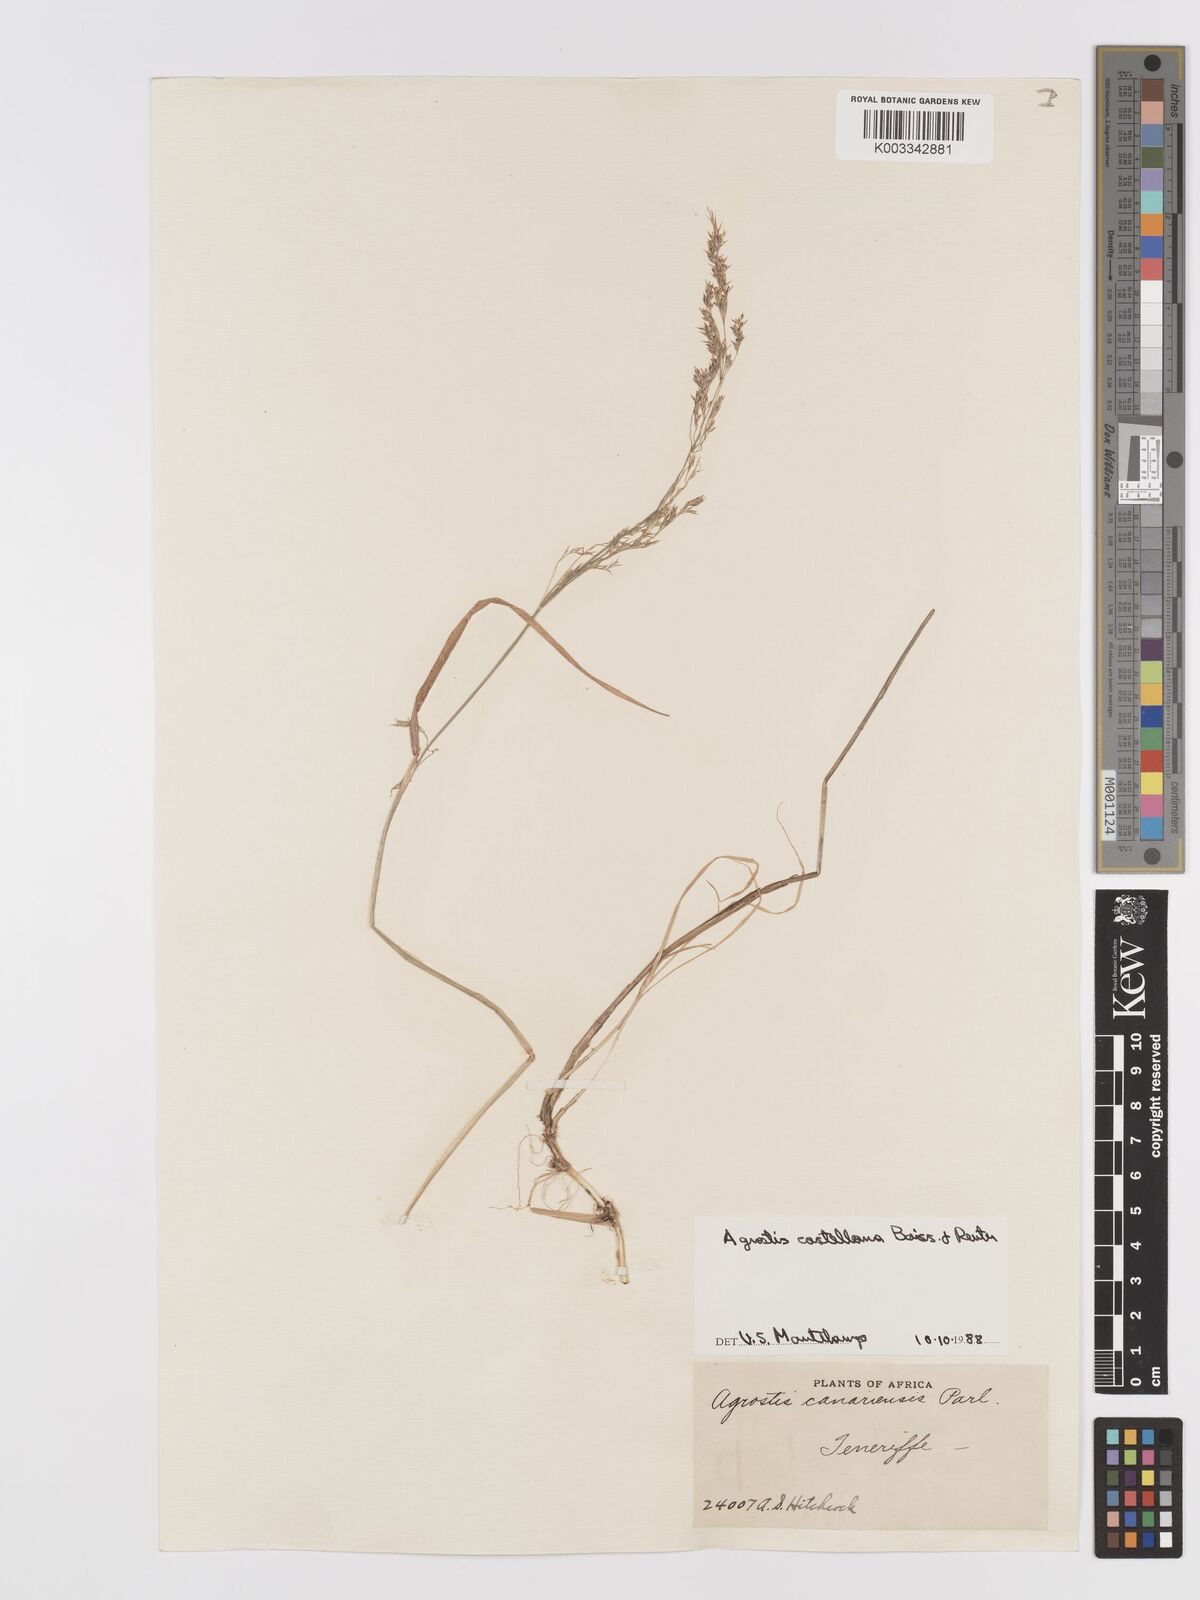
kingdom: Plantae
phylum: Tracheophyta
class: Liliopsida
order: Poales
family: Poaceae
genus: Agrostis
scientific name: Agrostis castellana
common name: Highland bent
